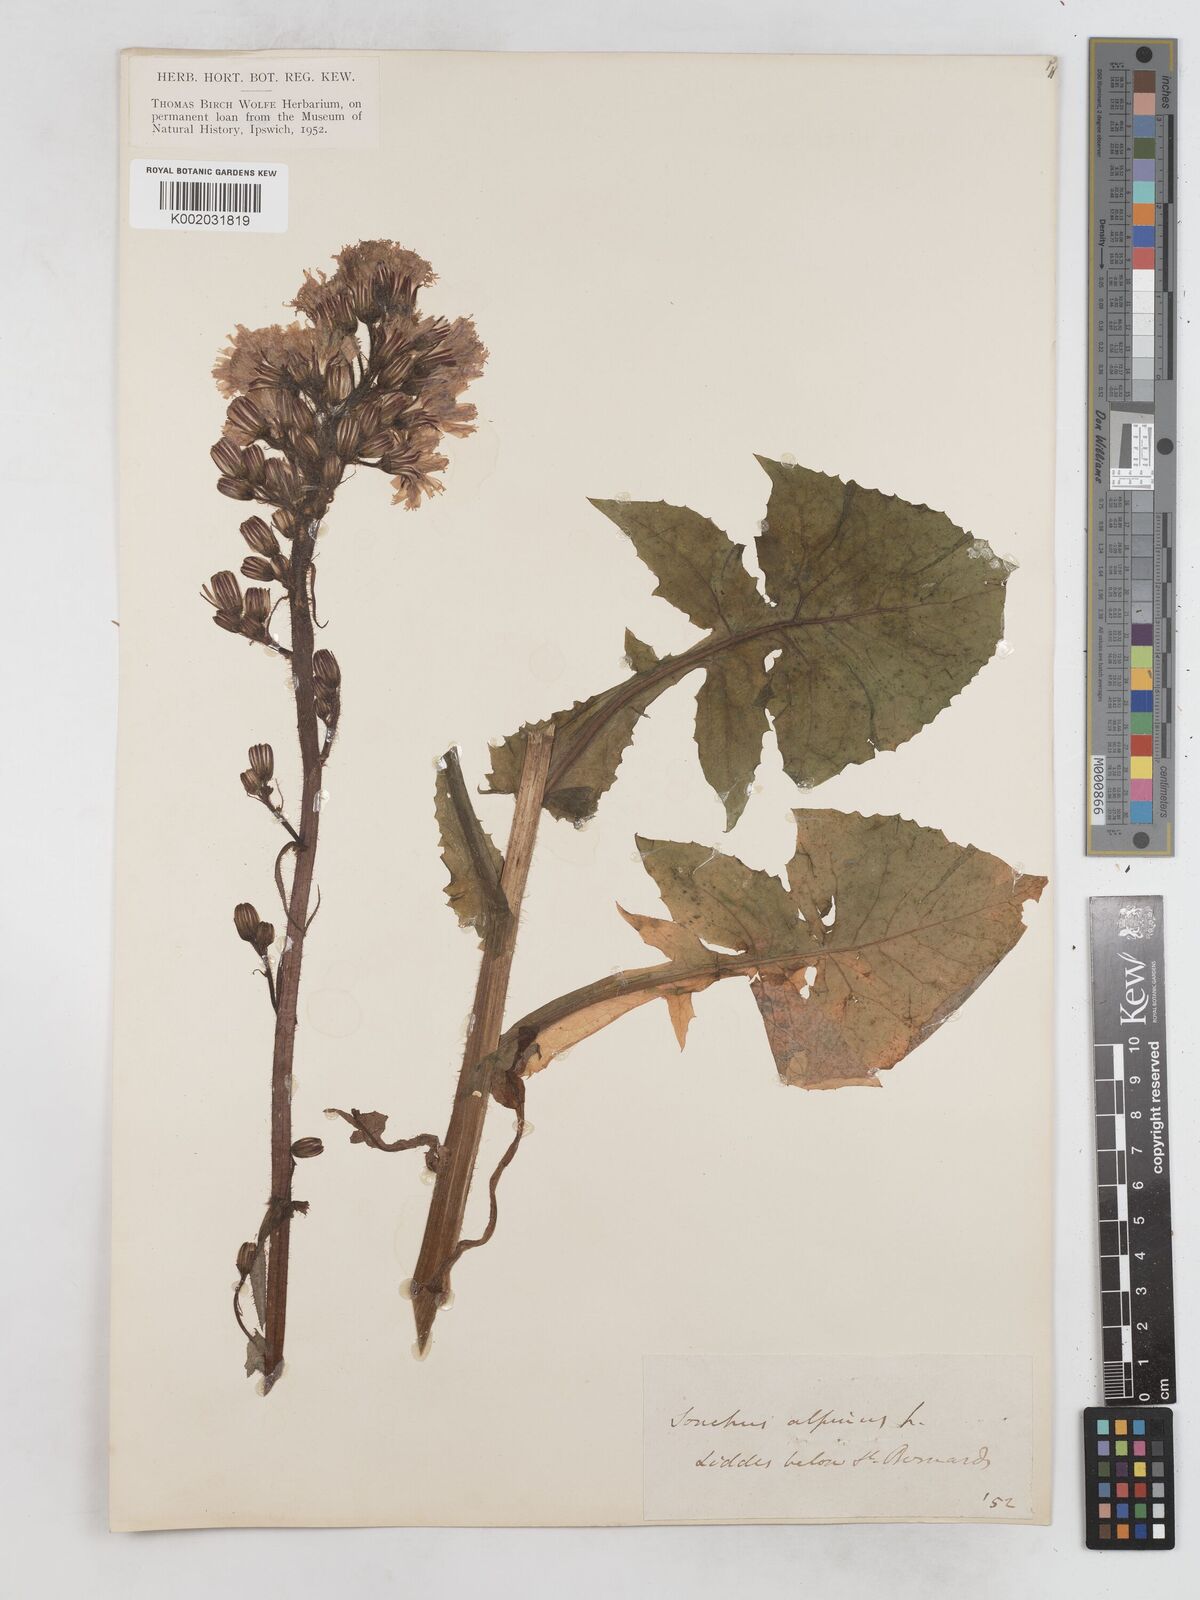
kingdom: Plantae
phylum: Tracheophyta
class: Magnoliopsida
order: Asterales
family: Asteraceae
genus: Cicerbita
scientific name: Cicerbita alpina
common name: Alpine blue-sow-thistle
